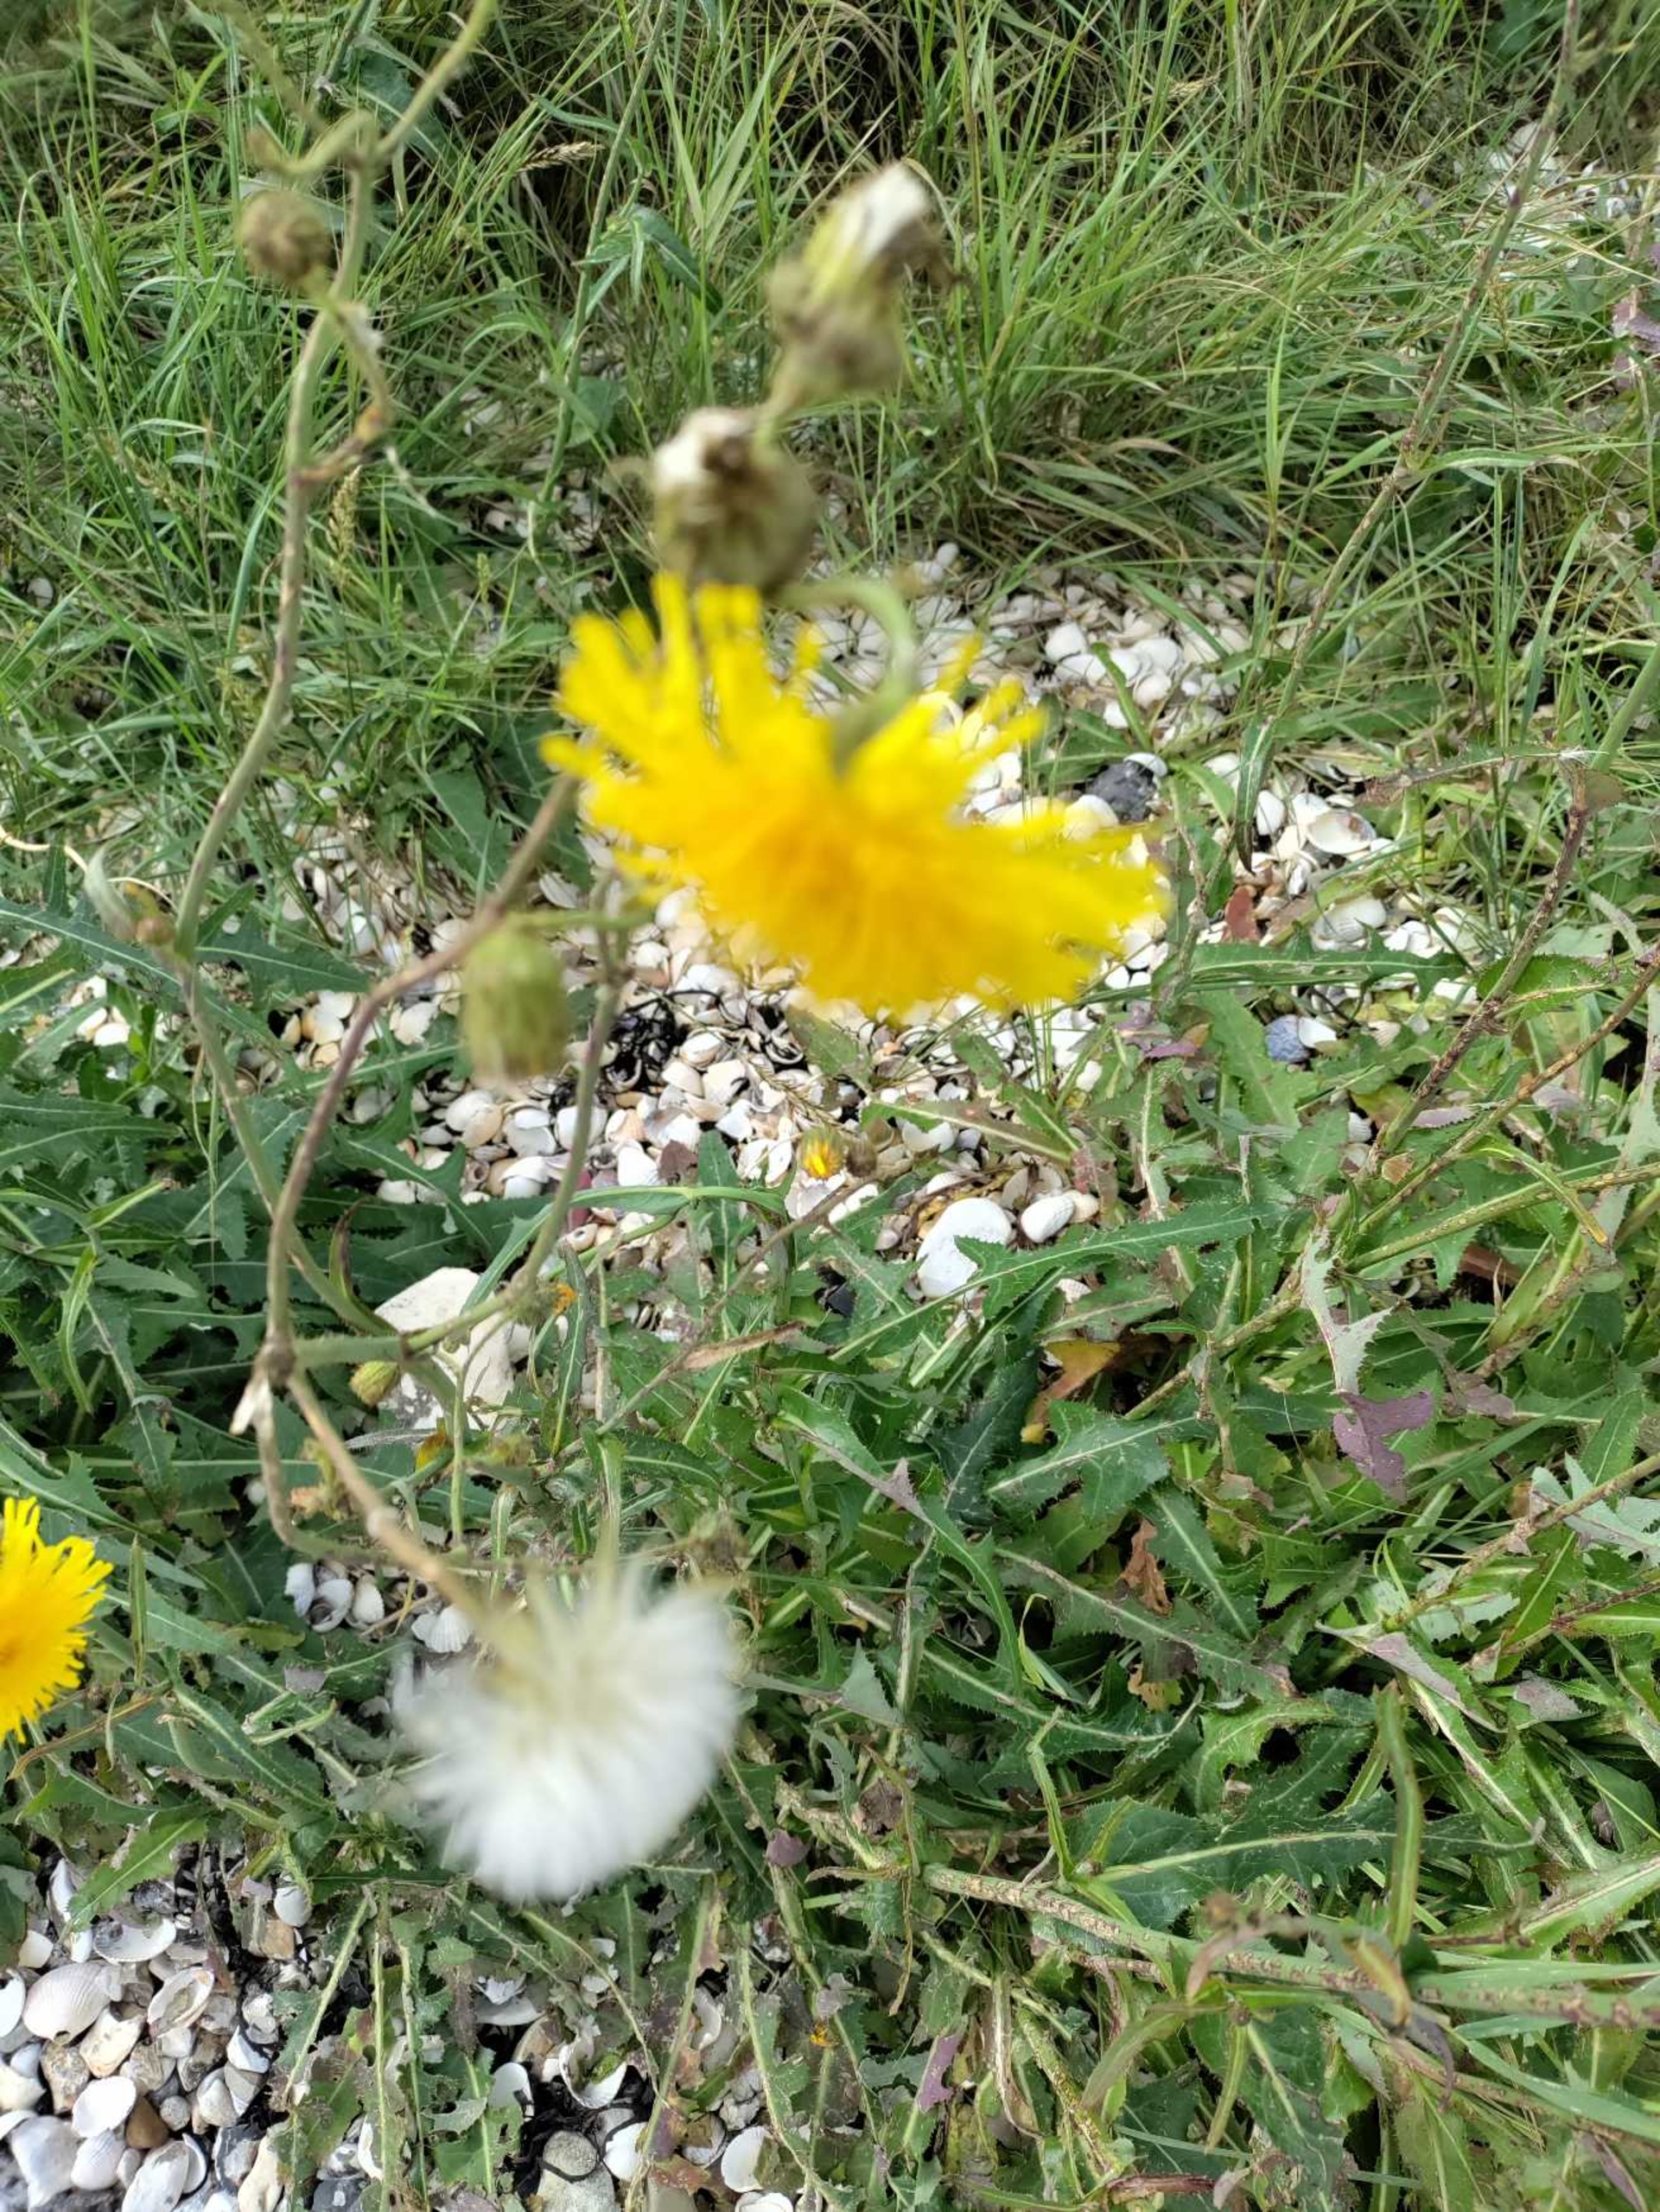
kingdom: Plantae
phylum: Tracheophyta
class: Magnoliopsida
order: Asterales
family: Asteraceae
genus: Sonchus
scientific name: Sonchus arvensis
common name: Ager-svinemælk
